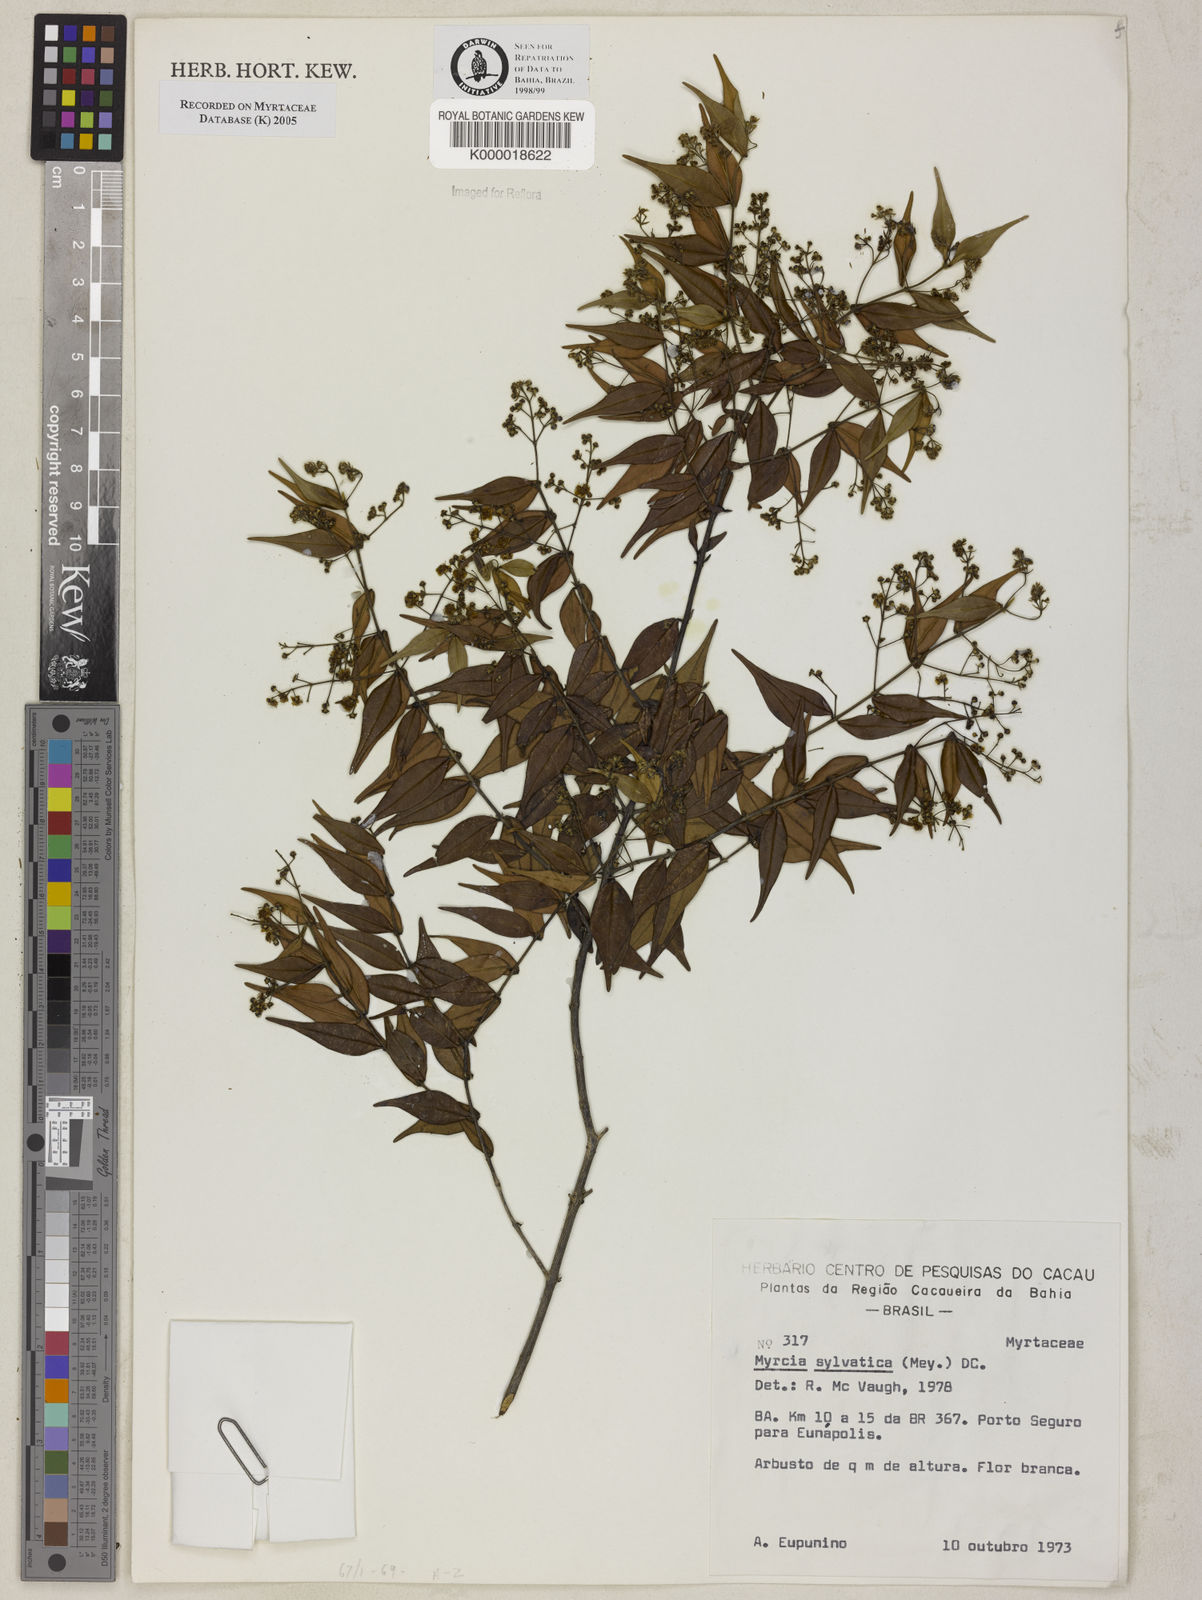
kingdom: Plantae
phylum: Tracheophyta
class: Magnoliopsida
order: Myrtales
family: Myrtaceae
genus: Myrcia
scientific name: Myrcia sylvatica
